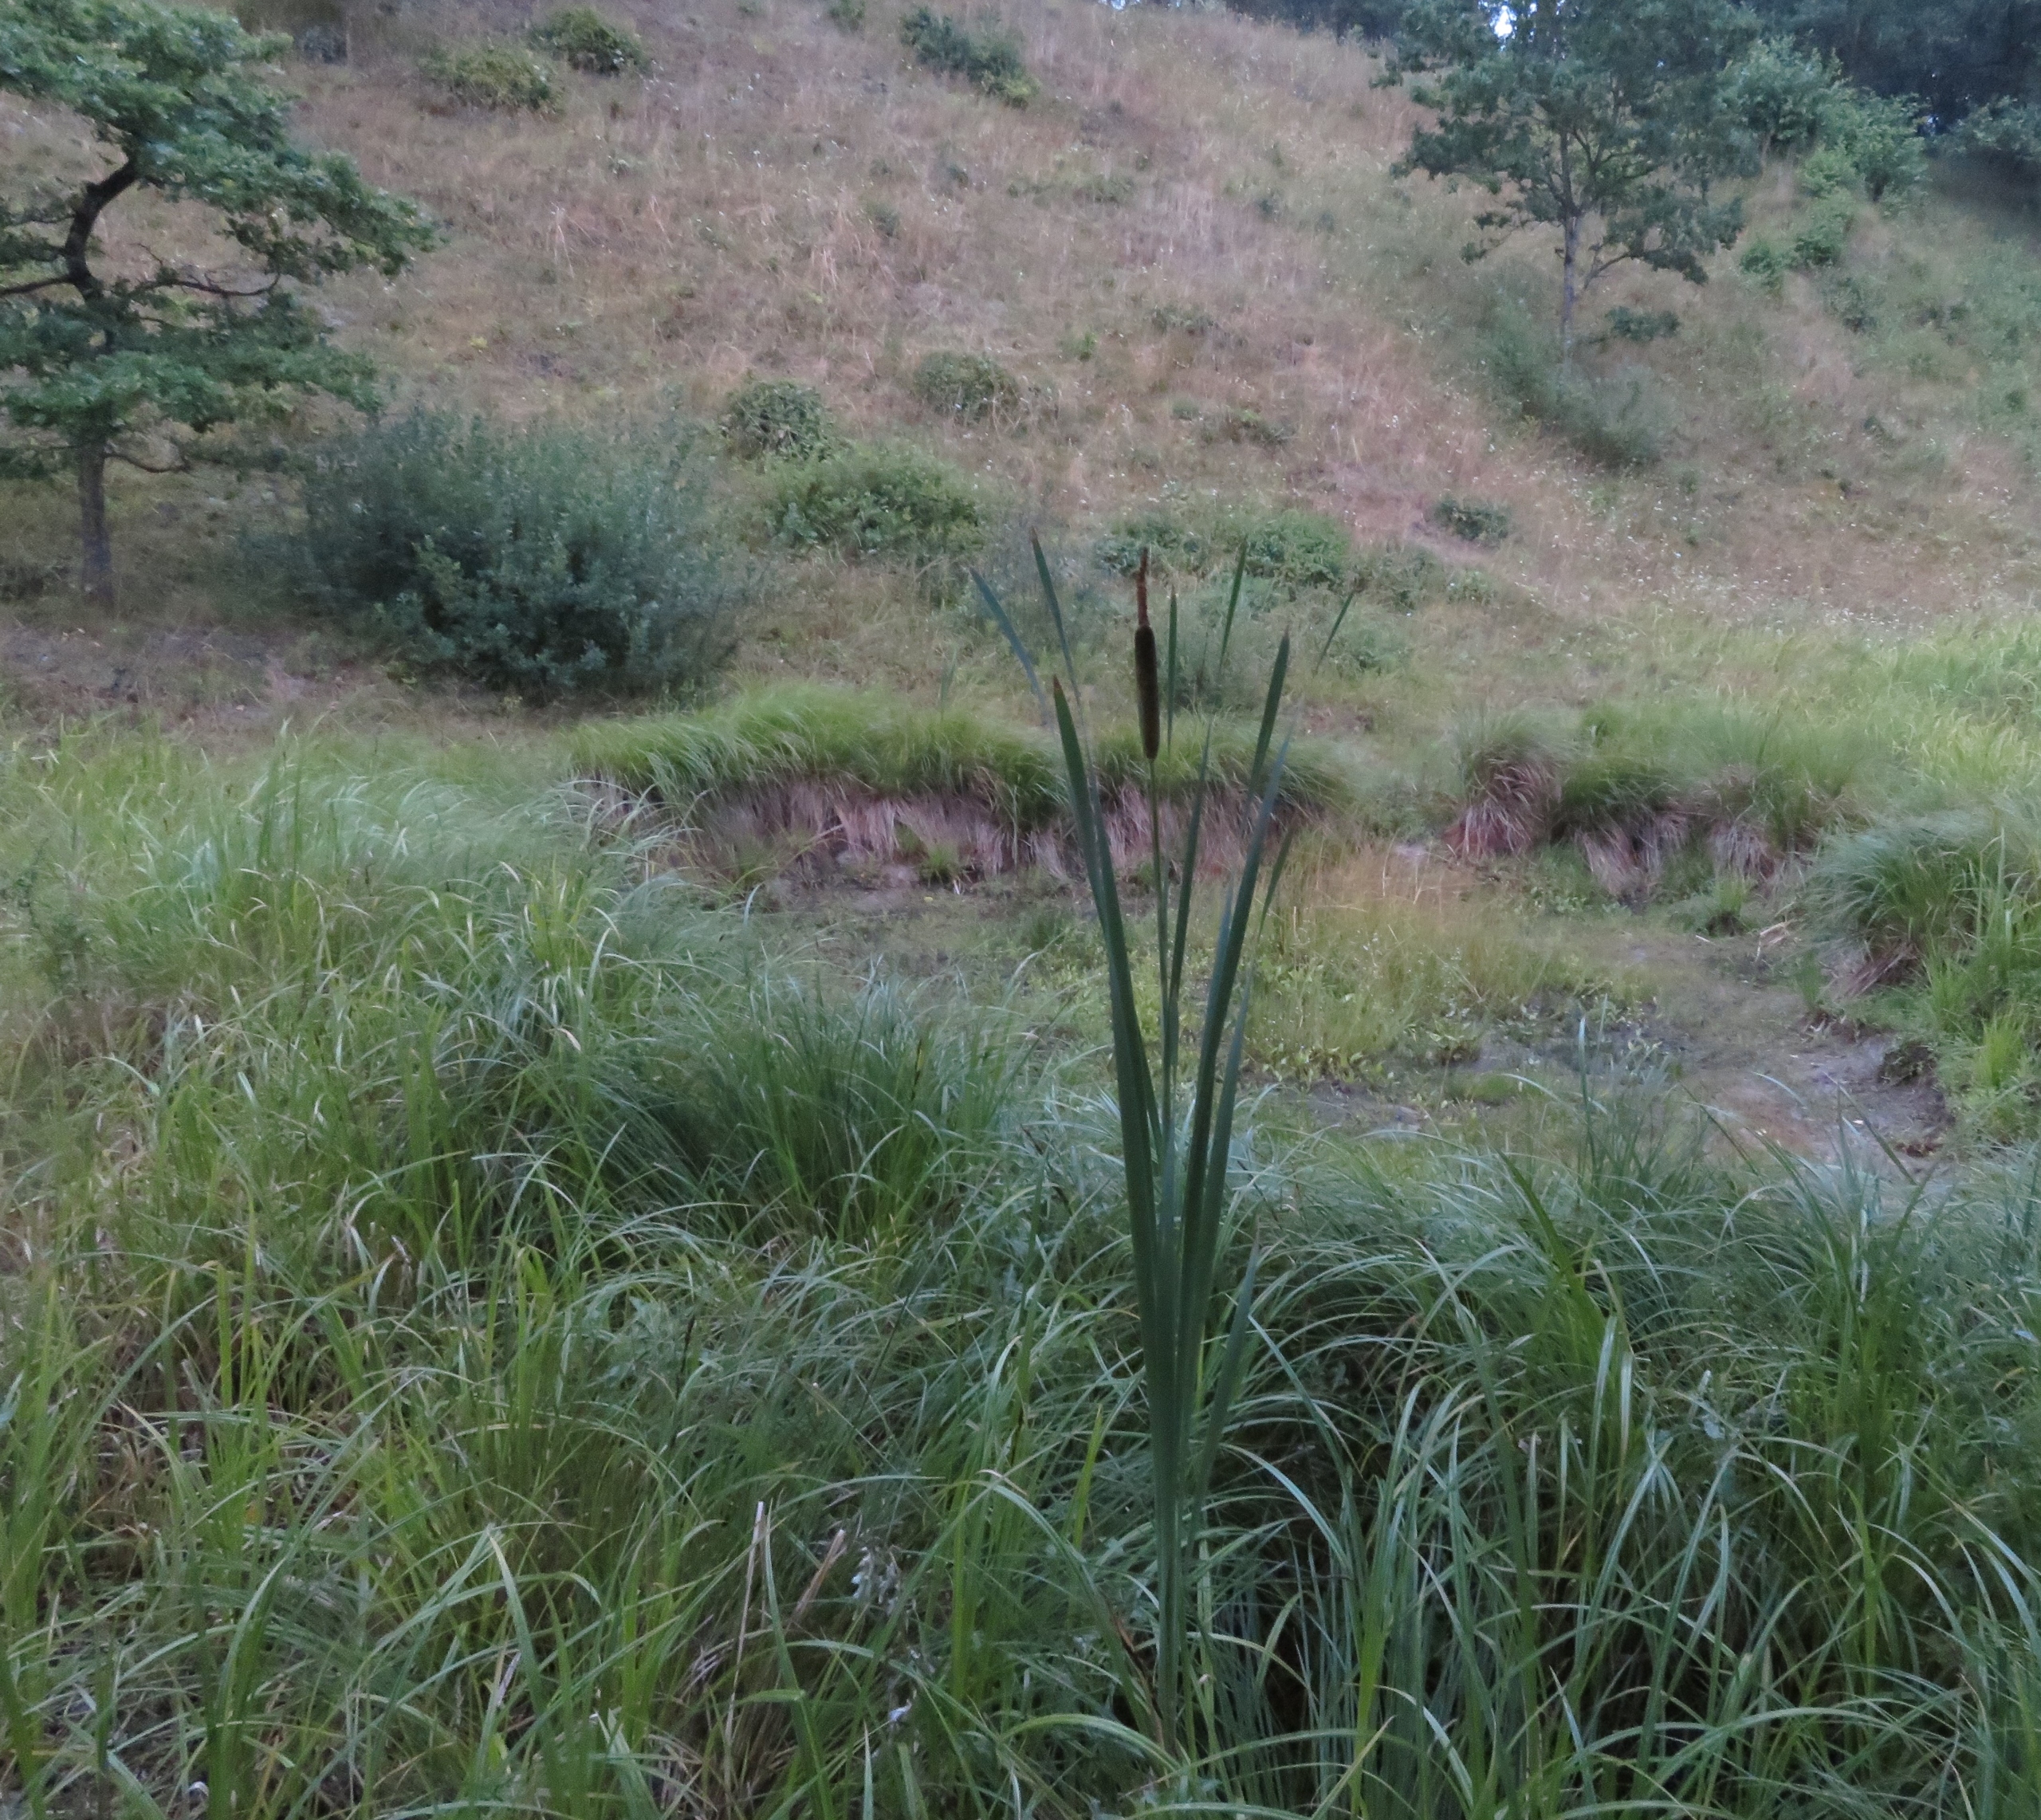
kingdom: Plantae
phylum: Tracheophyta
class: Liliopsida
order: Poales
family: Typhaceae
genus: Typha
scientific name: Typha latifolia
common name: Bredbladet dunhammer
